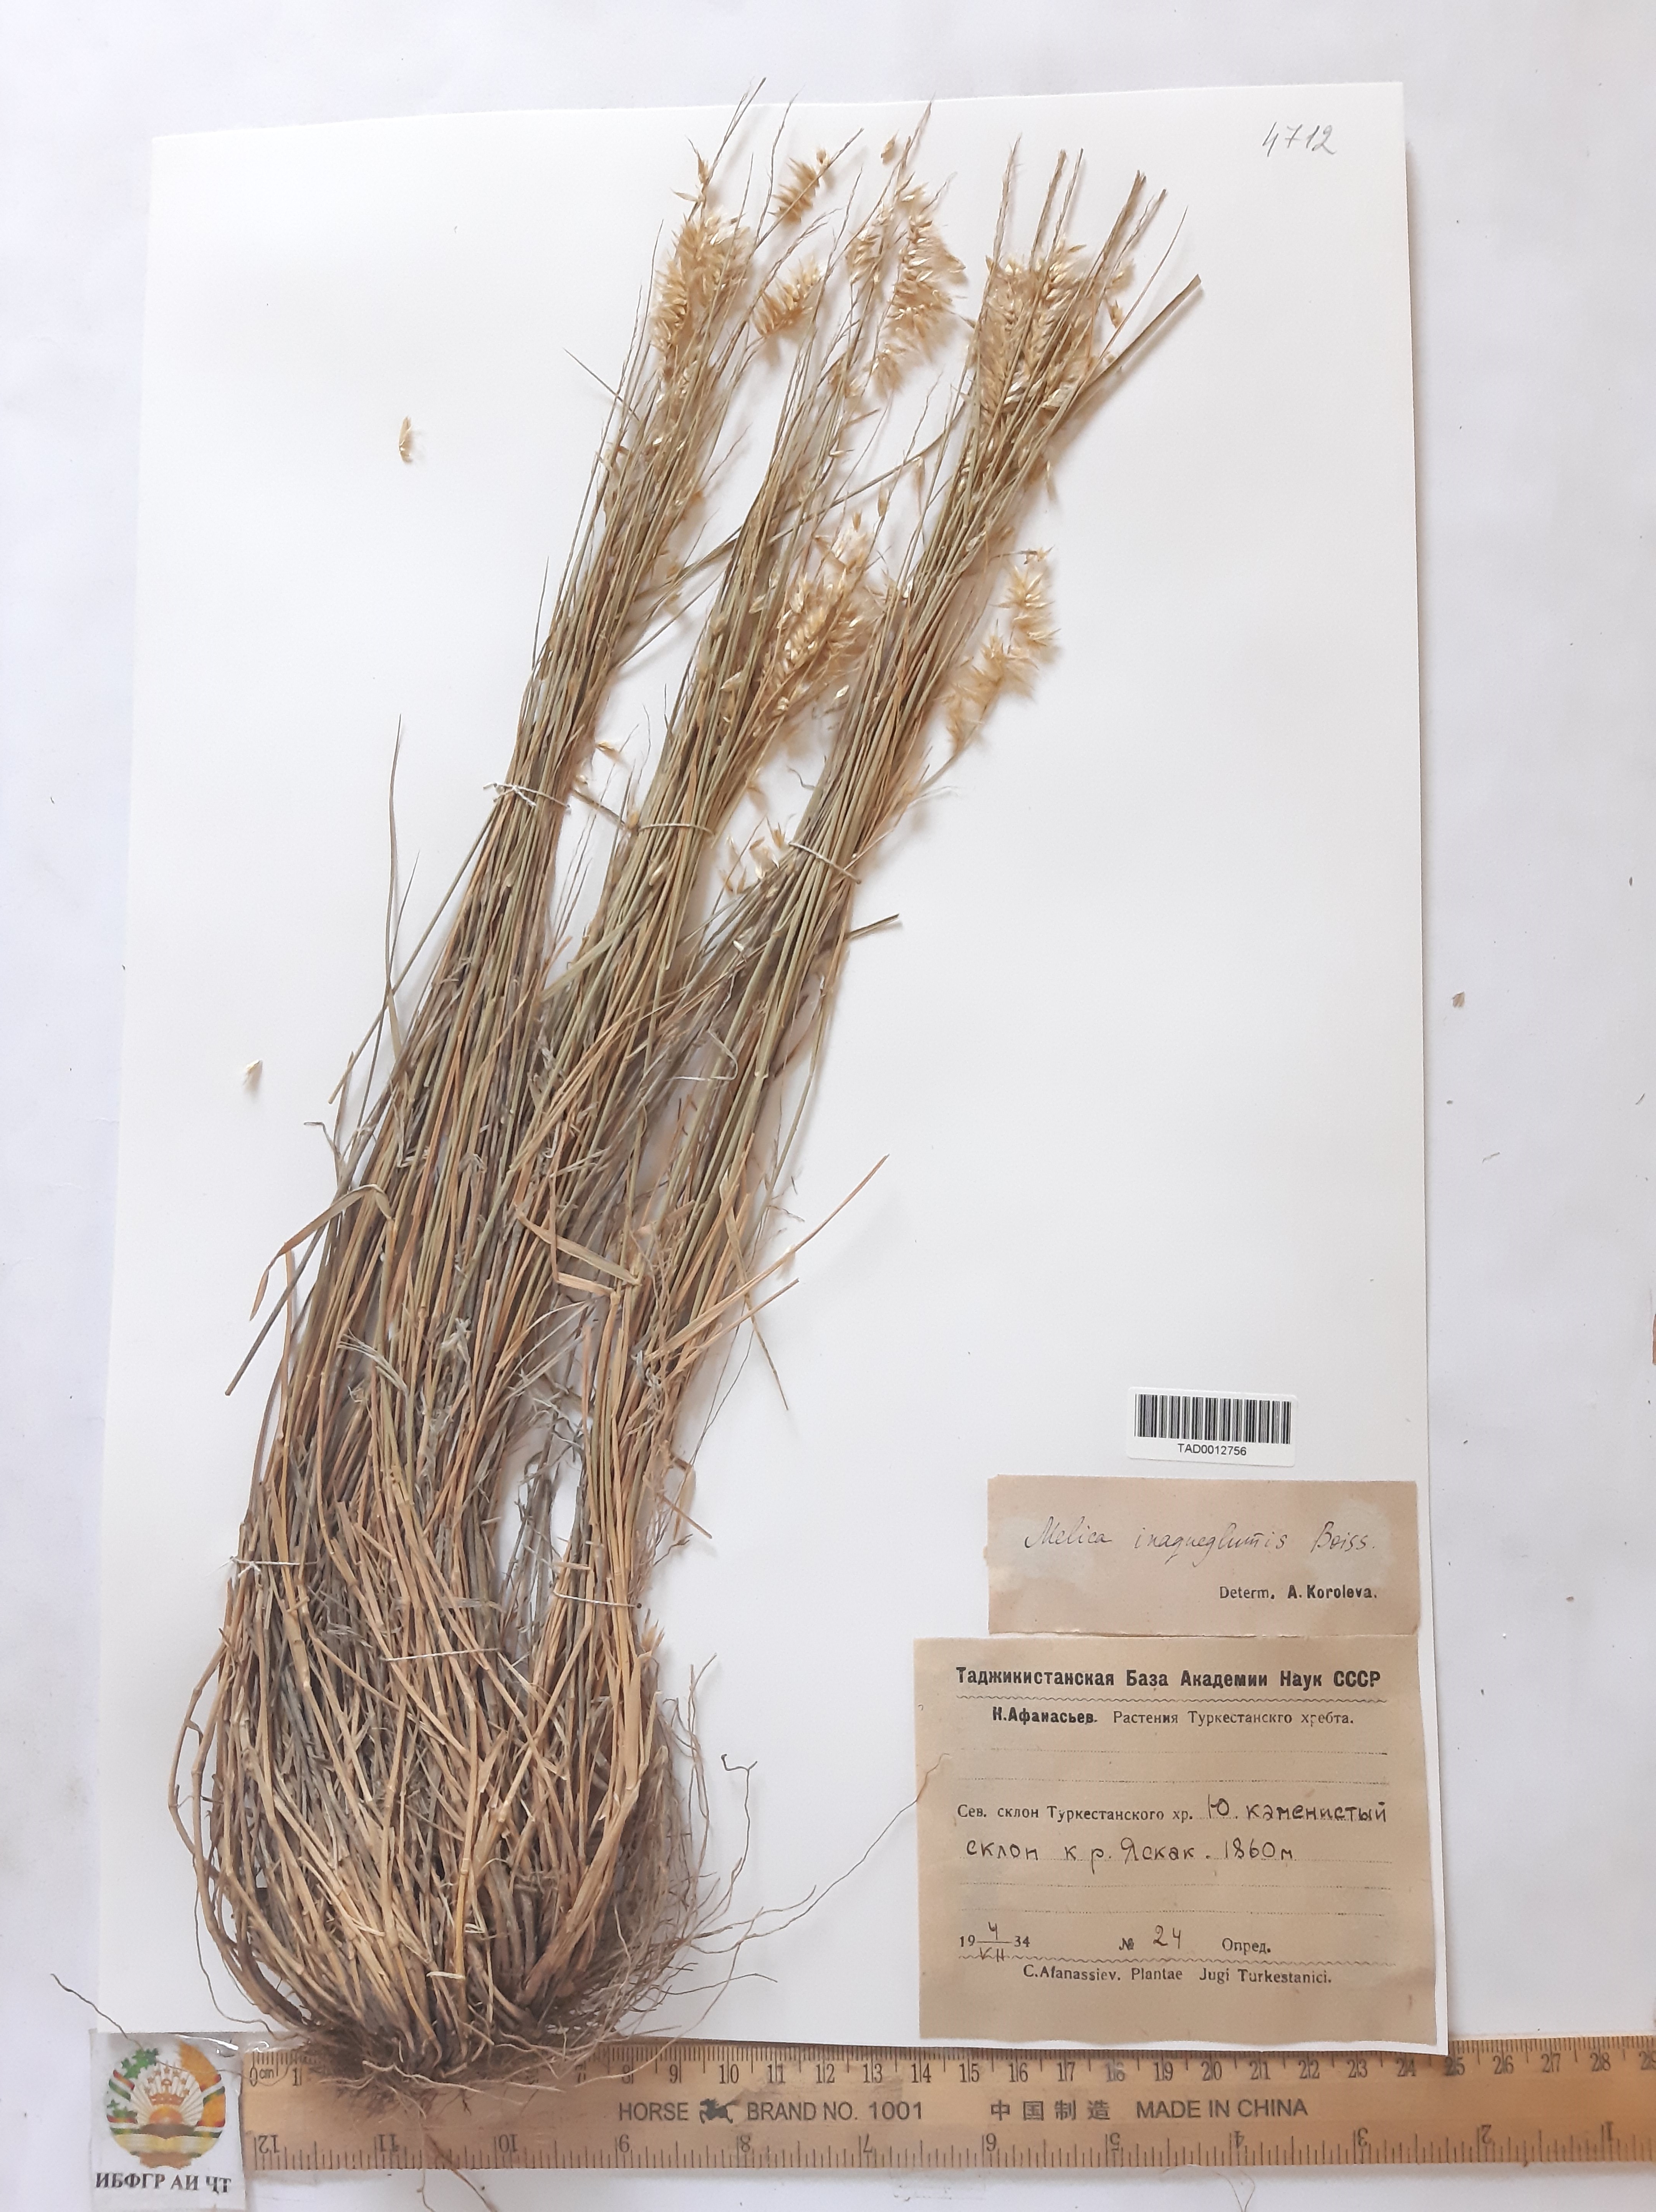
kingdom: Plantae
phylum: Tracheophyta
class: Liliopsida
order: Poales
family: Poaceae
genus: Melica
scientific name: Melica persica
